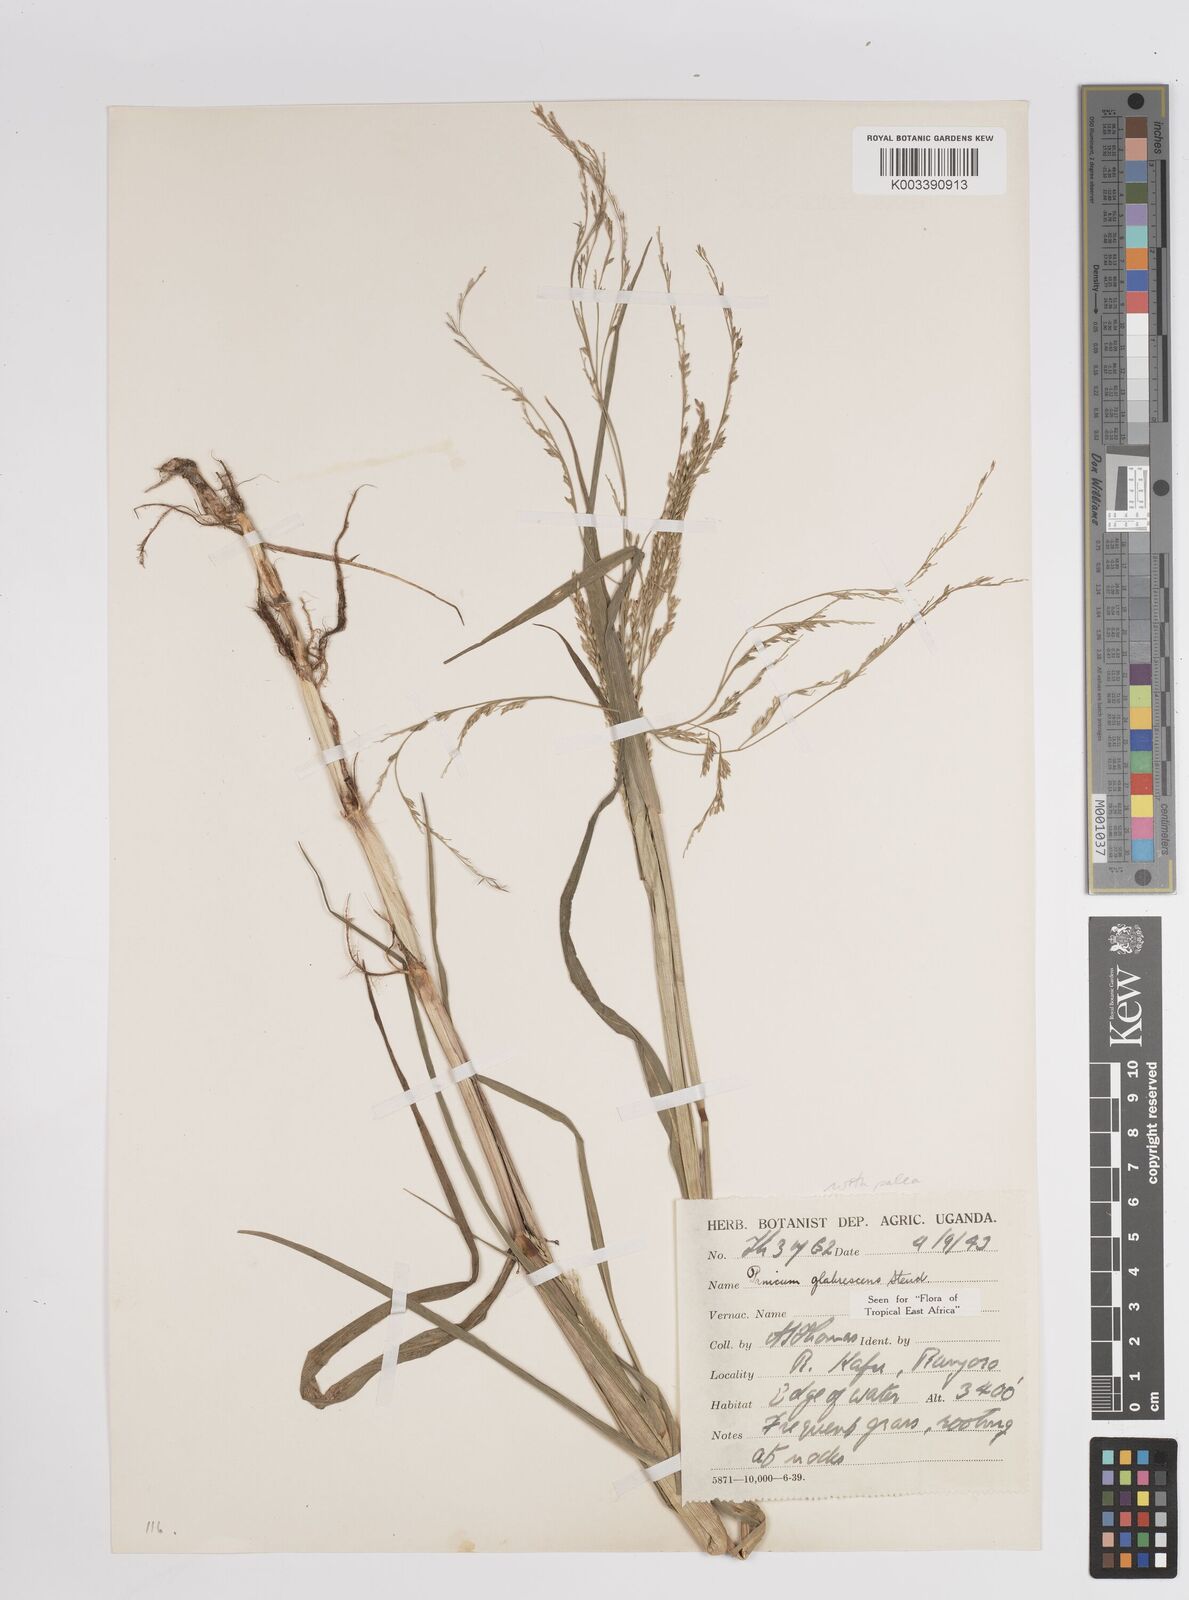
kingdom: Plantae
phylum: Tracheophyta
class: Liliopsida
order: Poales
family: Poaceae
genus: Panicum
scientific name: Panicum subalbidum
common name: Elbow buffalo grass
